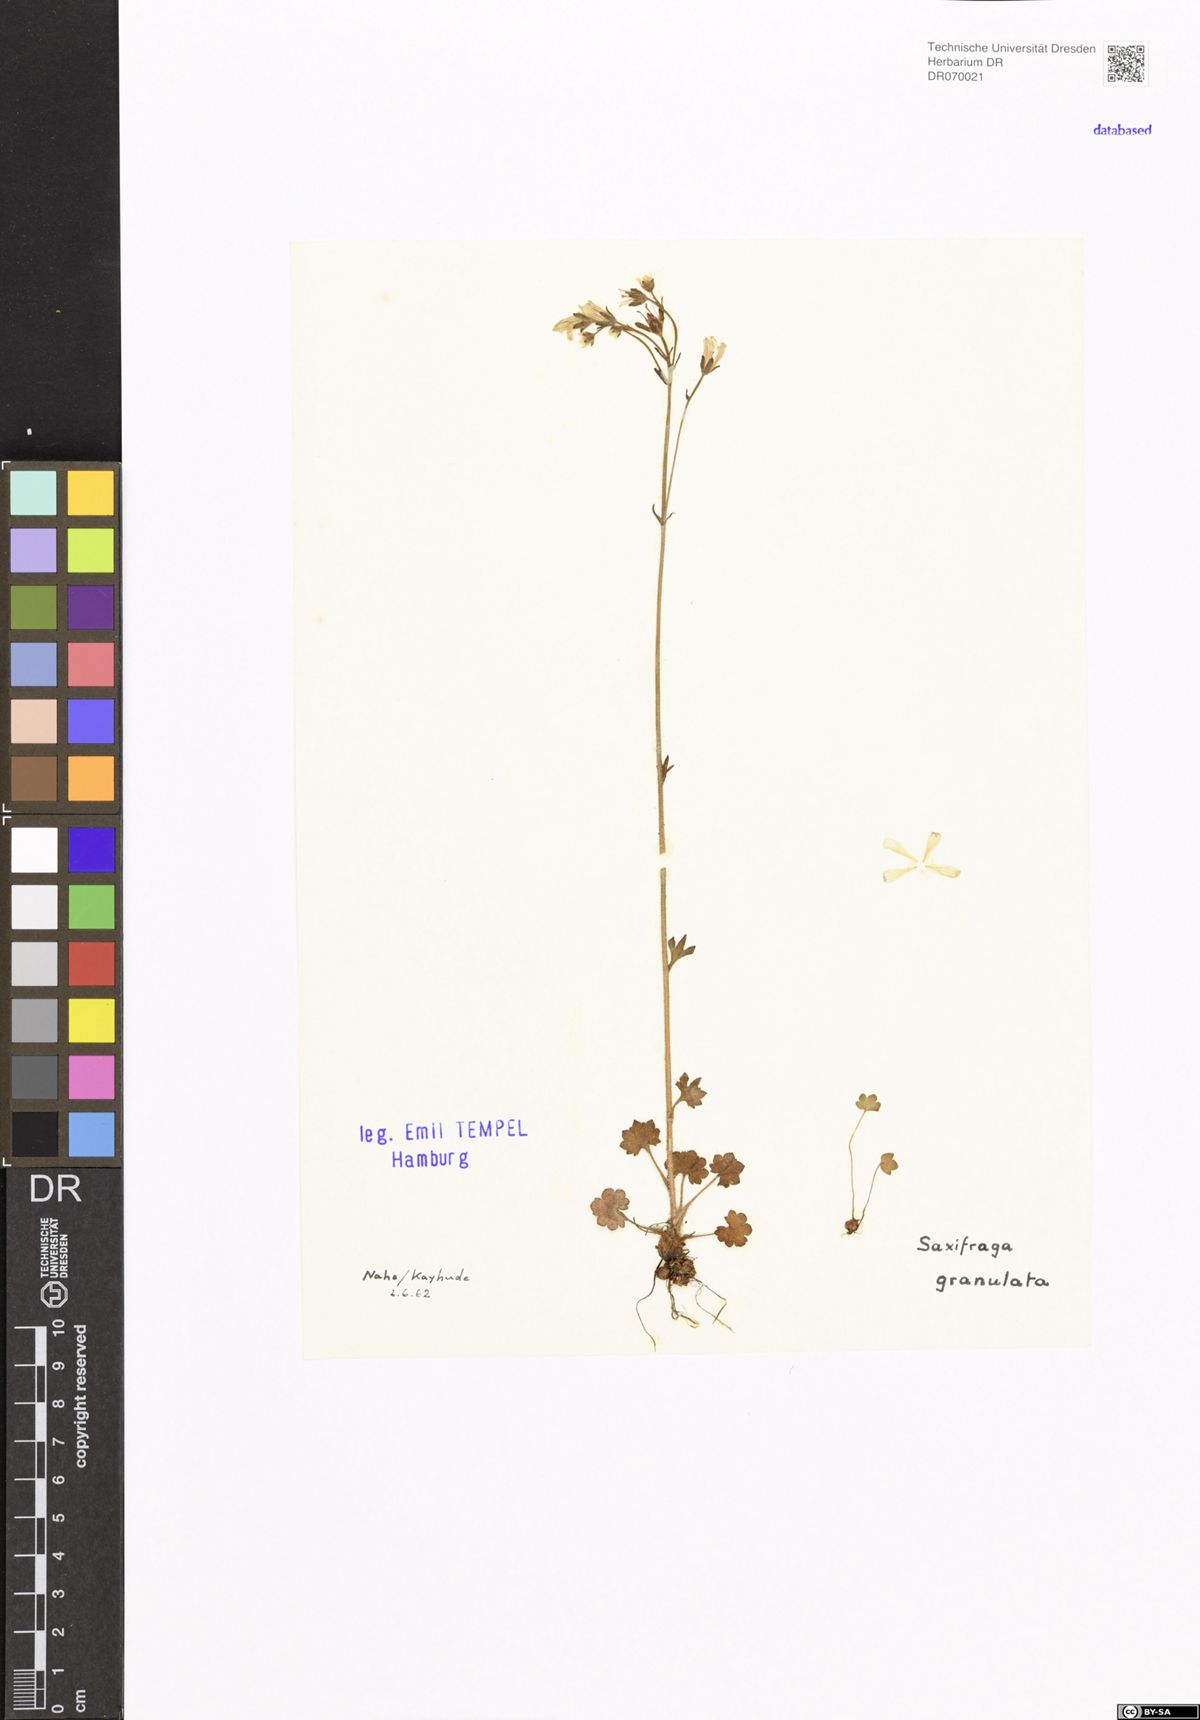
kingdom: Plantae
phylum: Tracheophyta
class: Magnoliopsida
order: Saxifragales
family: Saxifragaceae
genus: Saxifraga
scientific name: Saxifraga granulata
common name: Meadow saxifrage
